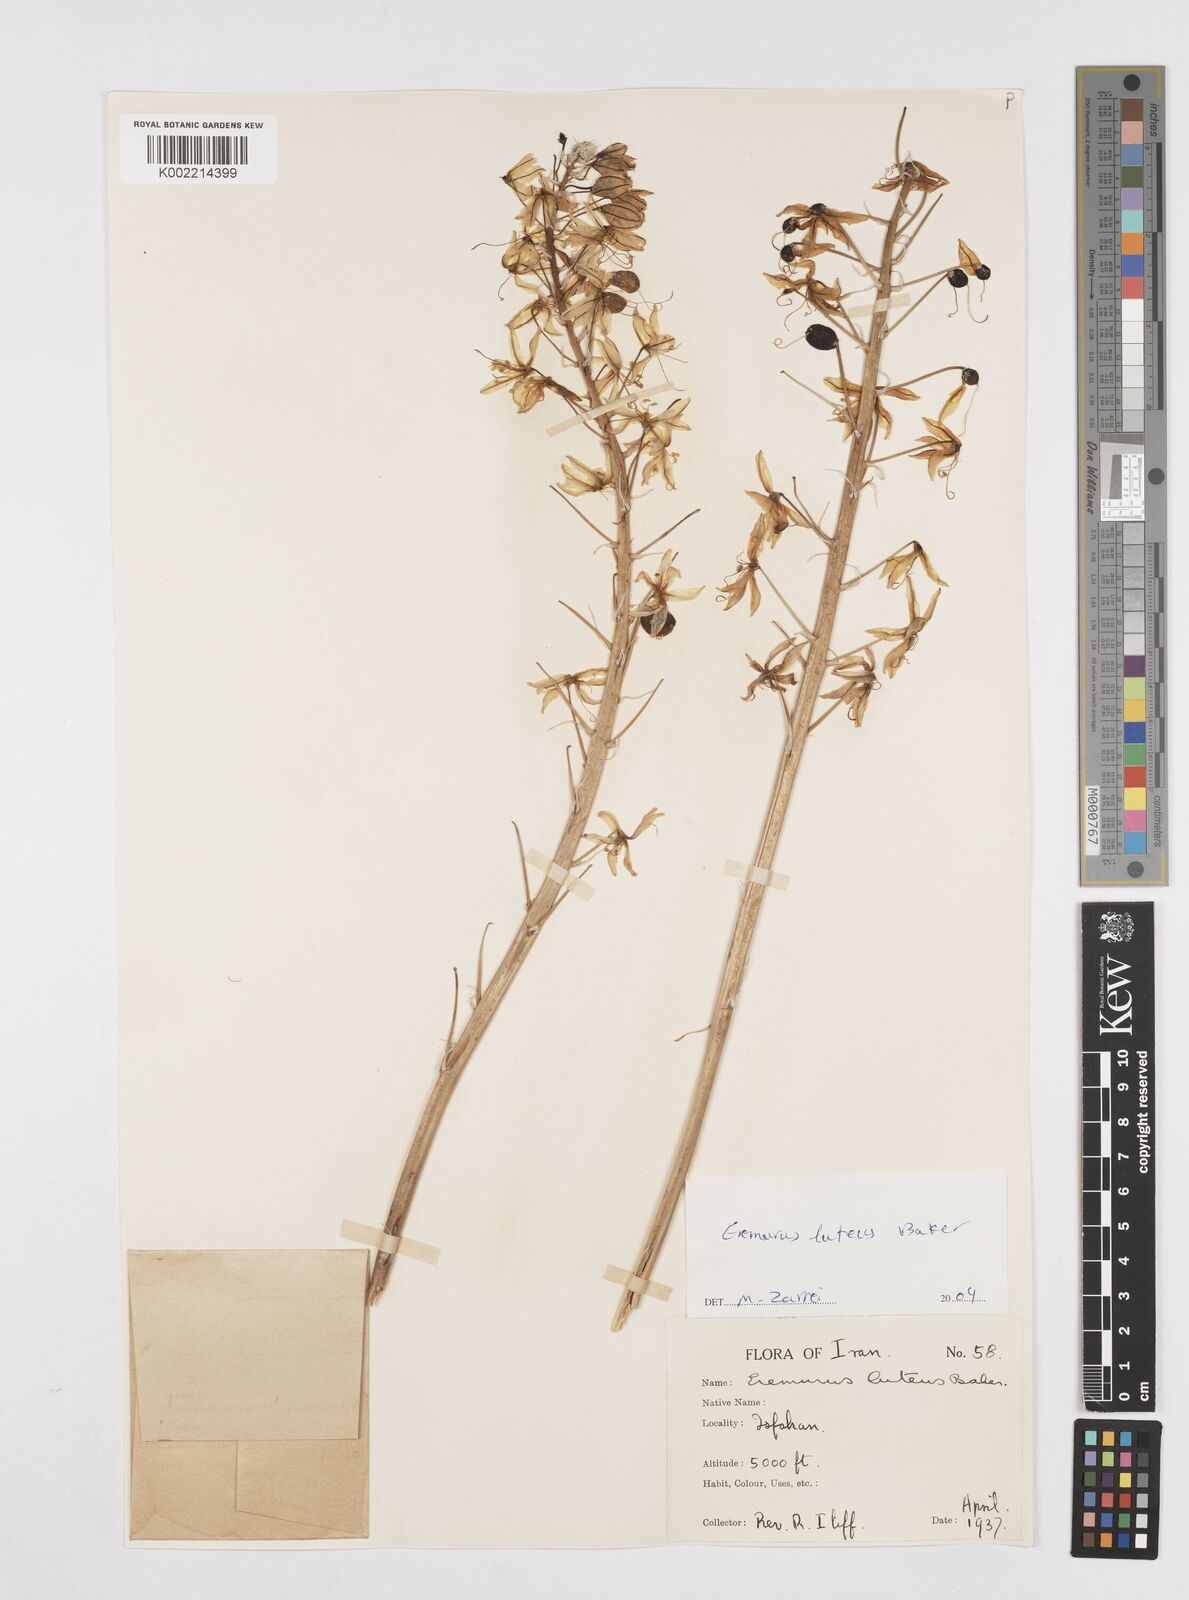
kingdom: Plantae
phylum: Tracheophyta
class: Liliopsida
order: Asparagales
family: Asphodelaceae
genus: Eremurus
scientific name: Eremurus luteus
